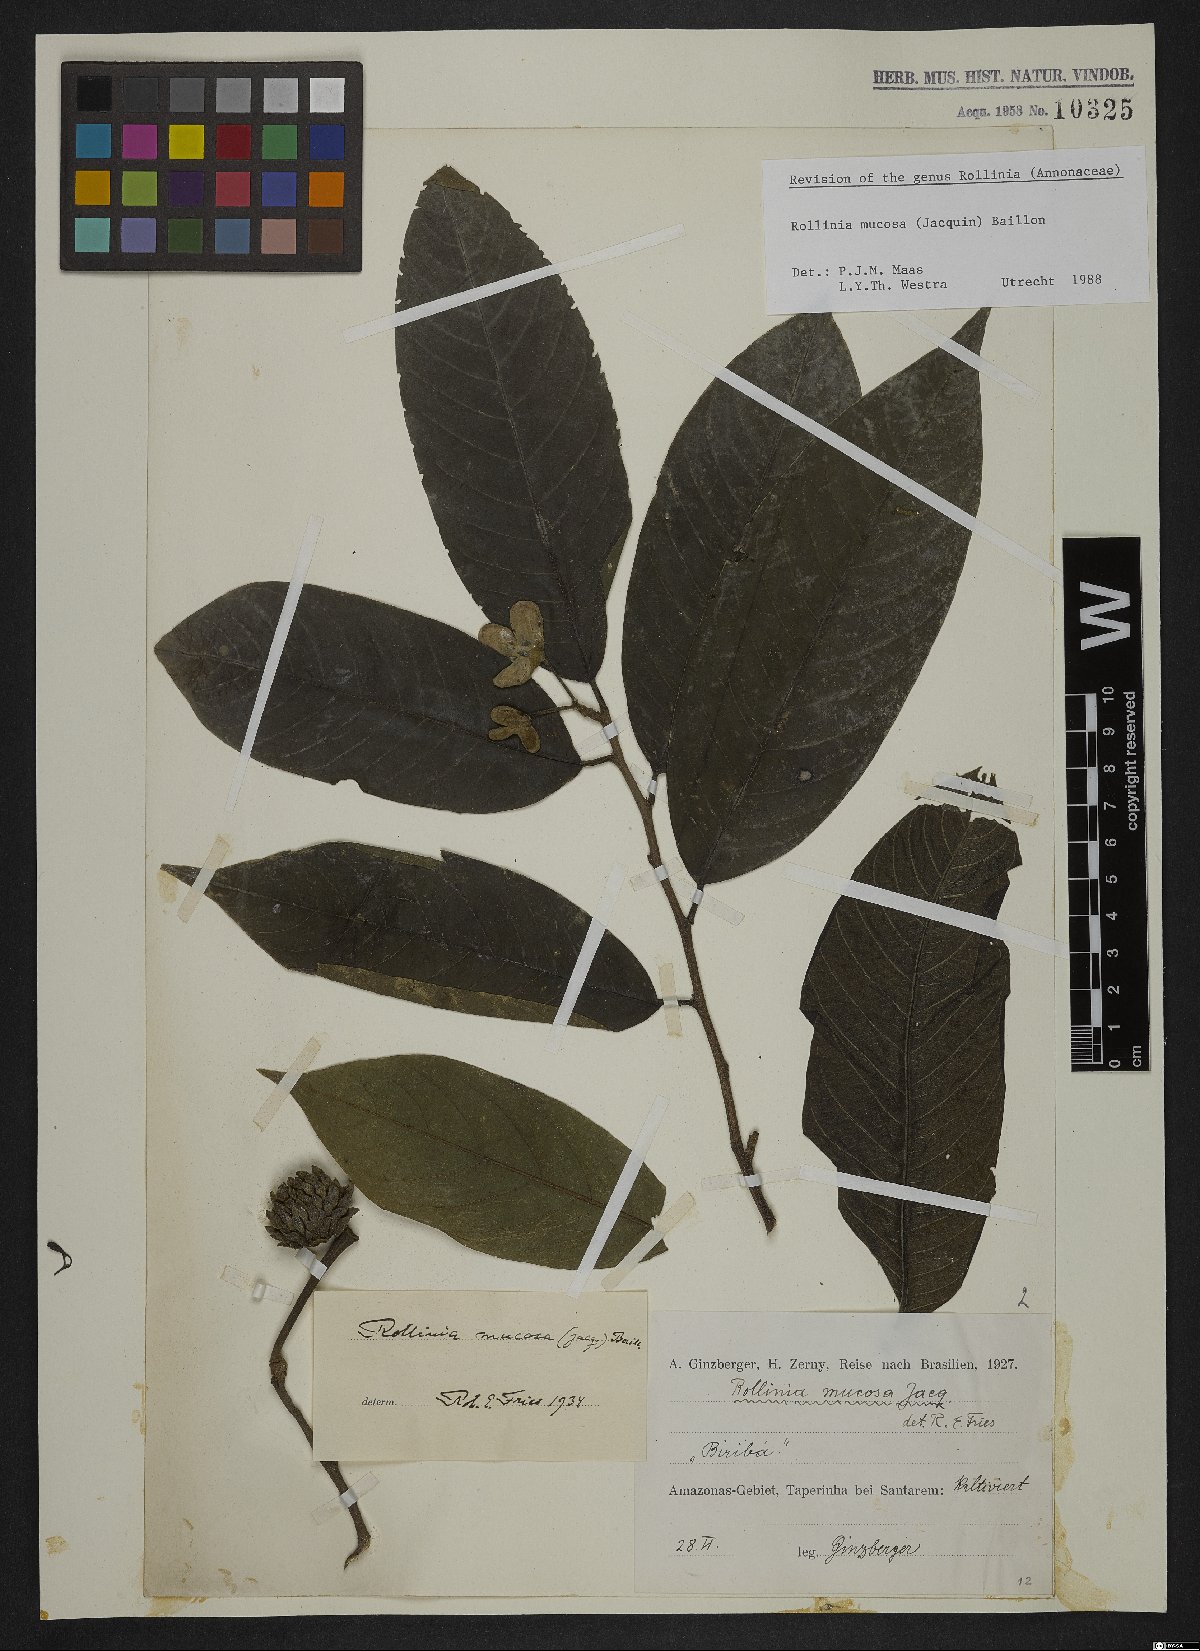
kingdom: Plantae
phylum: Tracheophyta
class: Magnoliopsida
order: Magnoliales
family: Annonaceae
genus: Annona
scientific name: Annona mucosa
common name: Sugar apple
